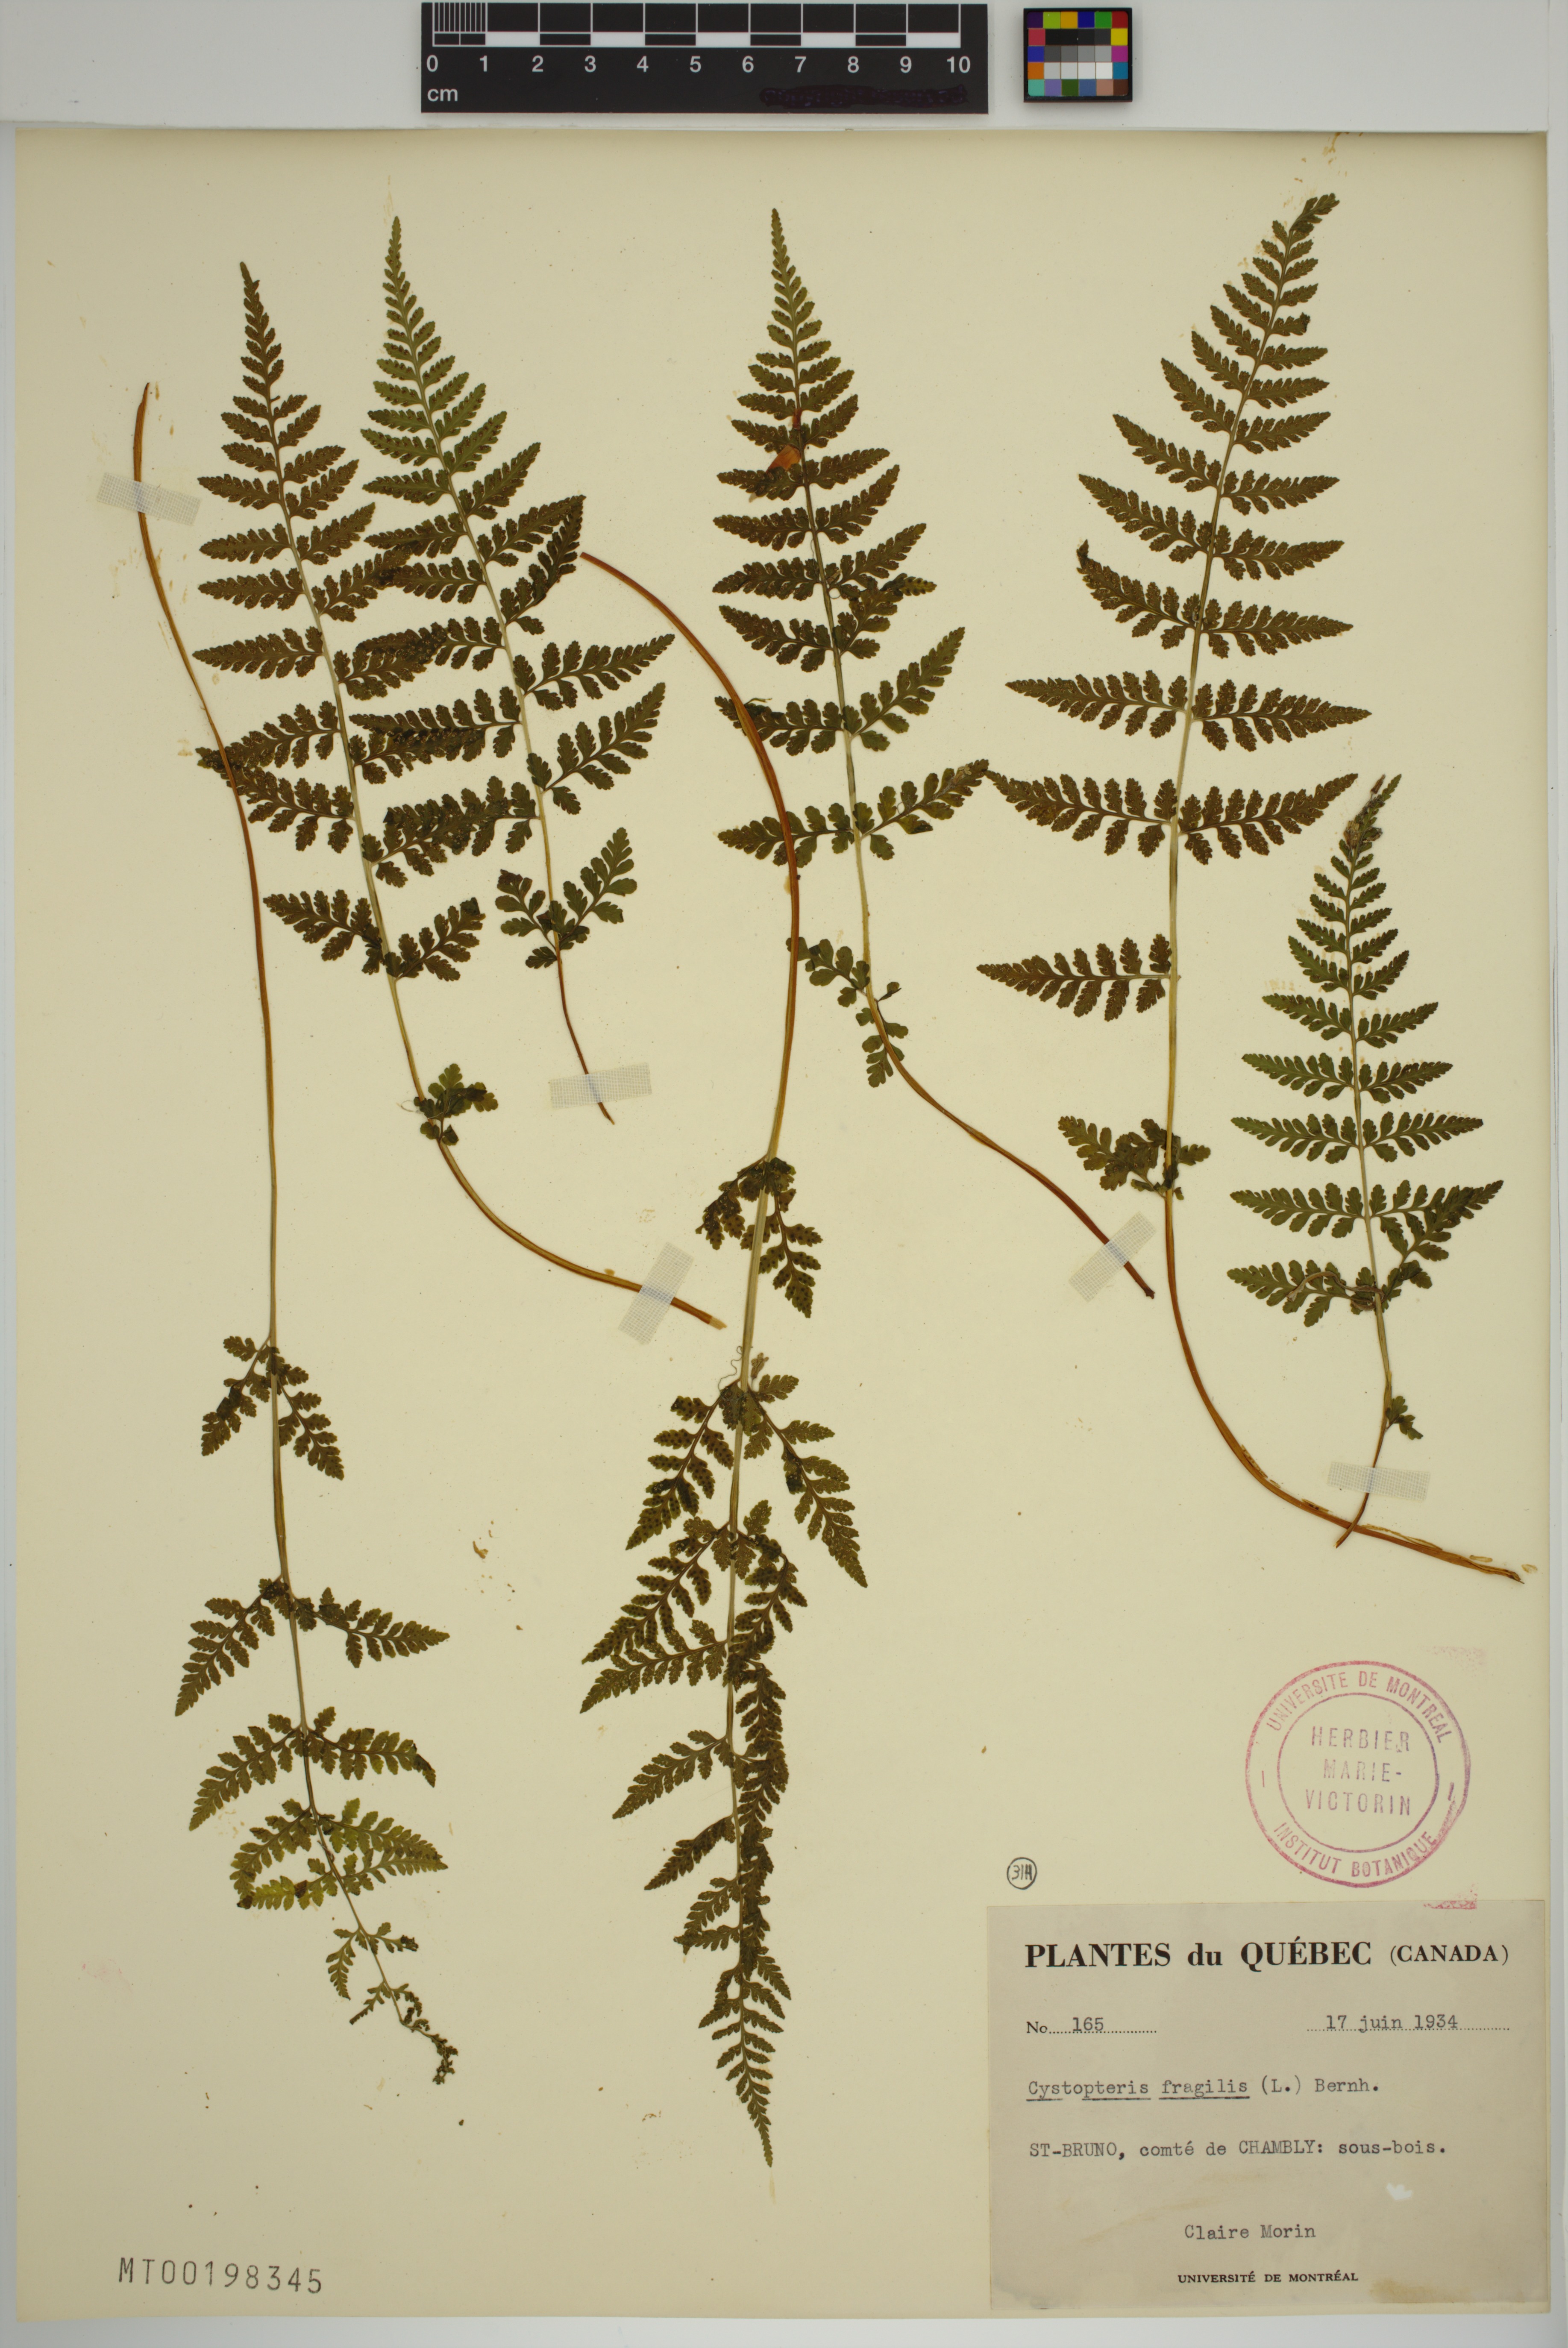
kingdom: Plantae
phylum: Tracheophyta
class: Polypodiopsida
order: Polypodiales
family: Cystopteridaceae
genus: Cystopteris
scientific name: Cystopteris fragilis
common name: Brittle bladder fern
